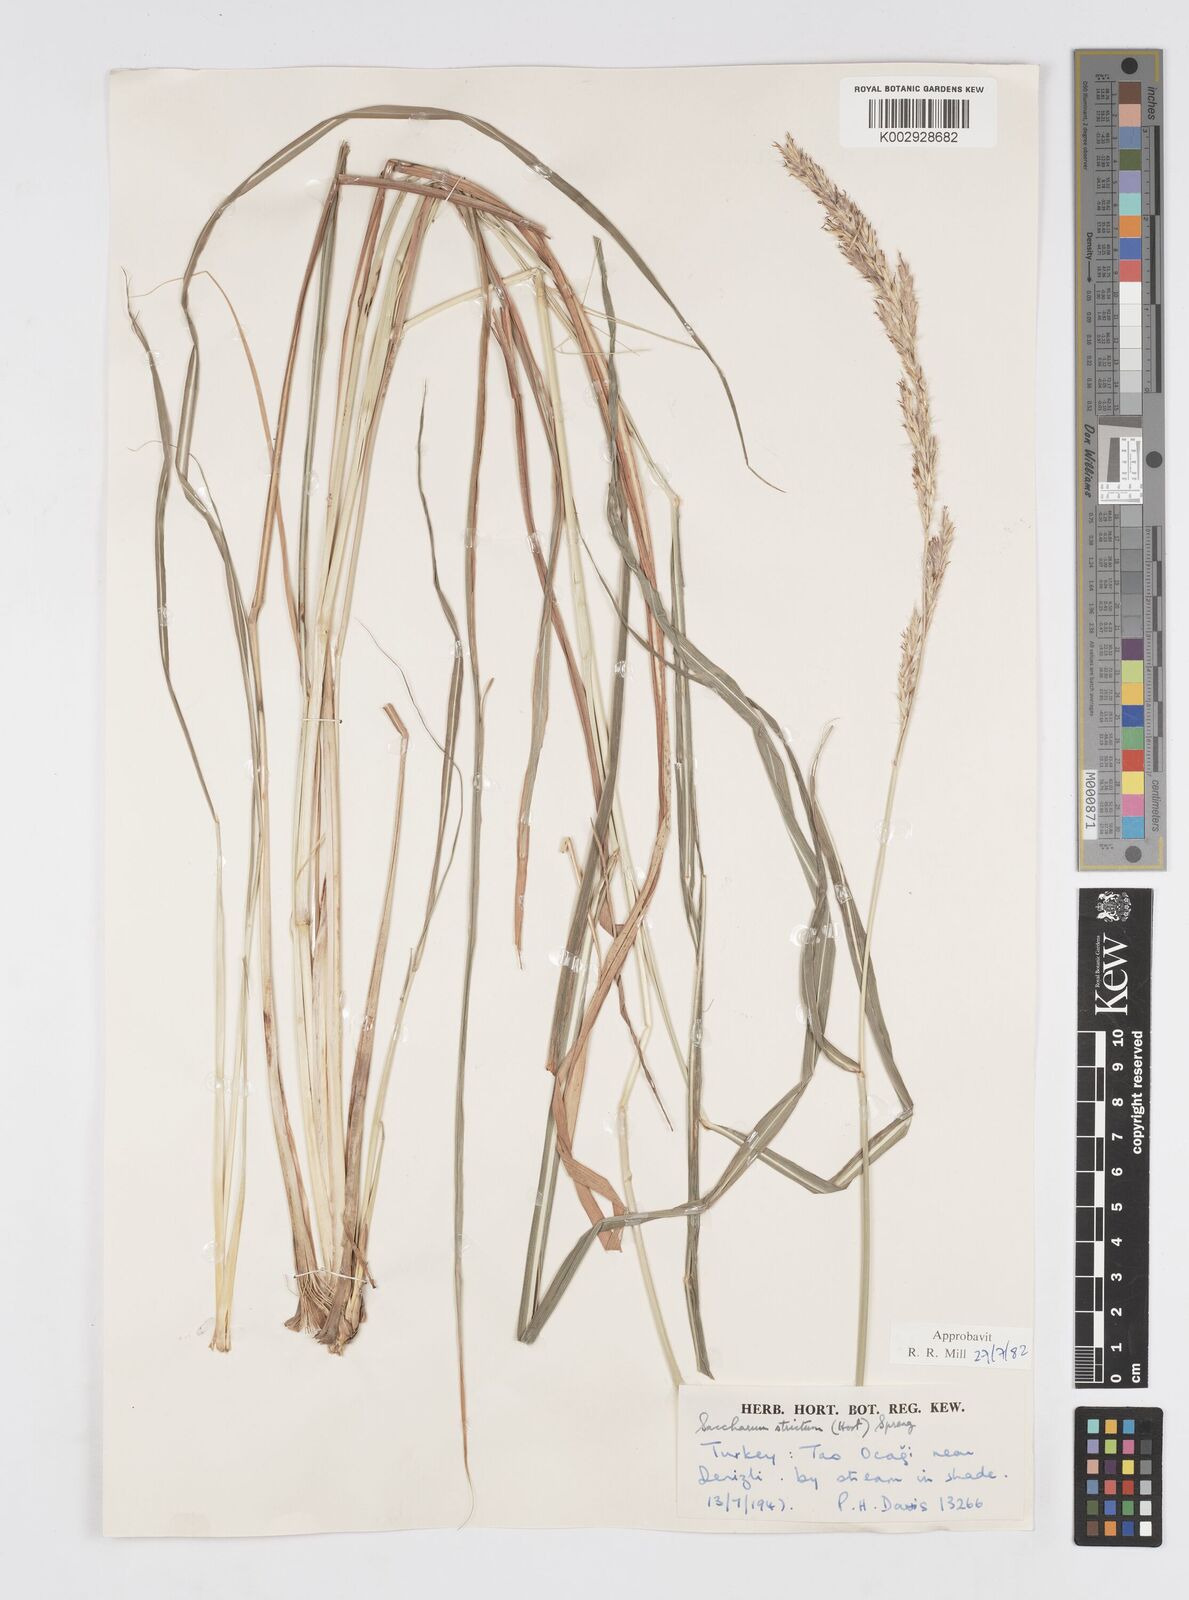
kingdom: Plantae
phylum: Tracheophyta
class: Liliopsida
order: Poales
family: Poaceae
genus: Tripidium
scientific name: Tripidium strictum
